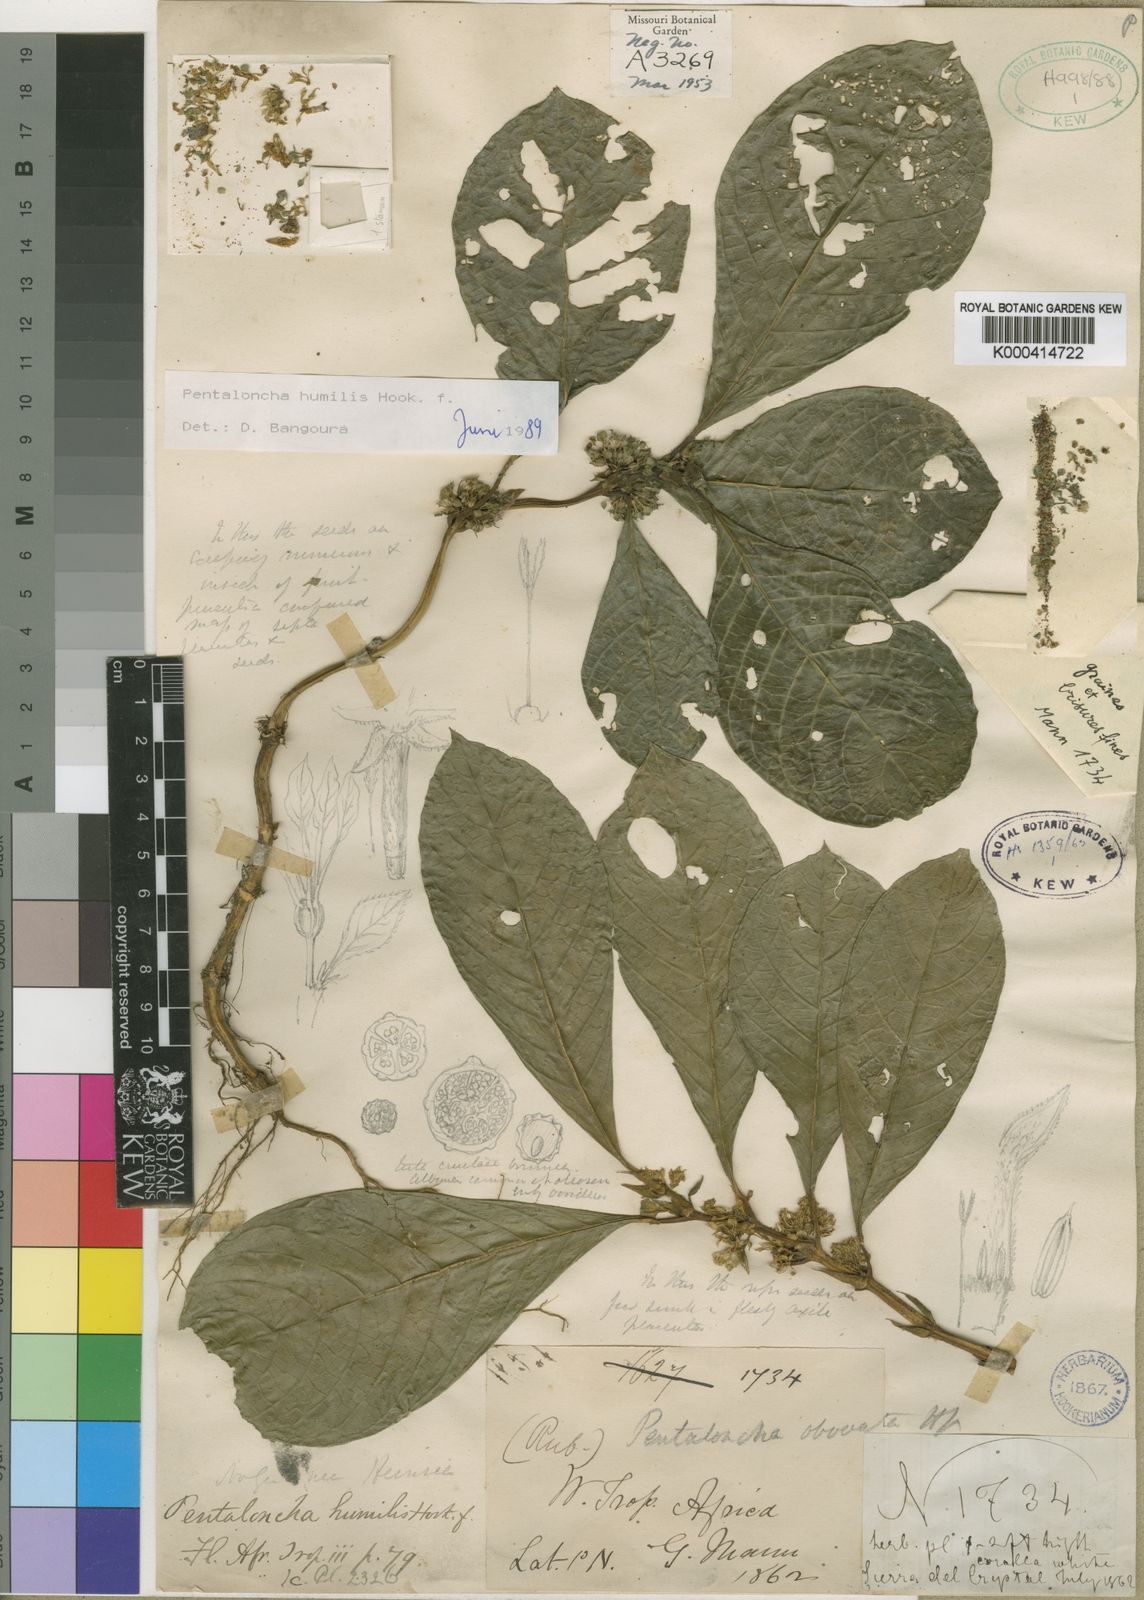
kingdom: Plantae
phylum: Tracheophyta
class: Magnoliopsida
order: Gentianales
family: Rubiaceae
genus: Pentaloncha
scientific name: Pentaloncha humilis
